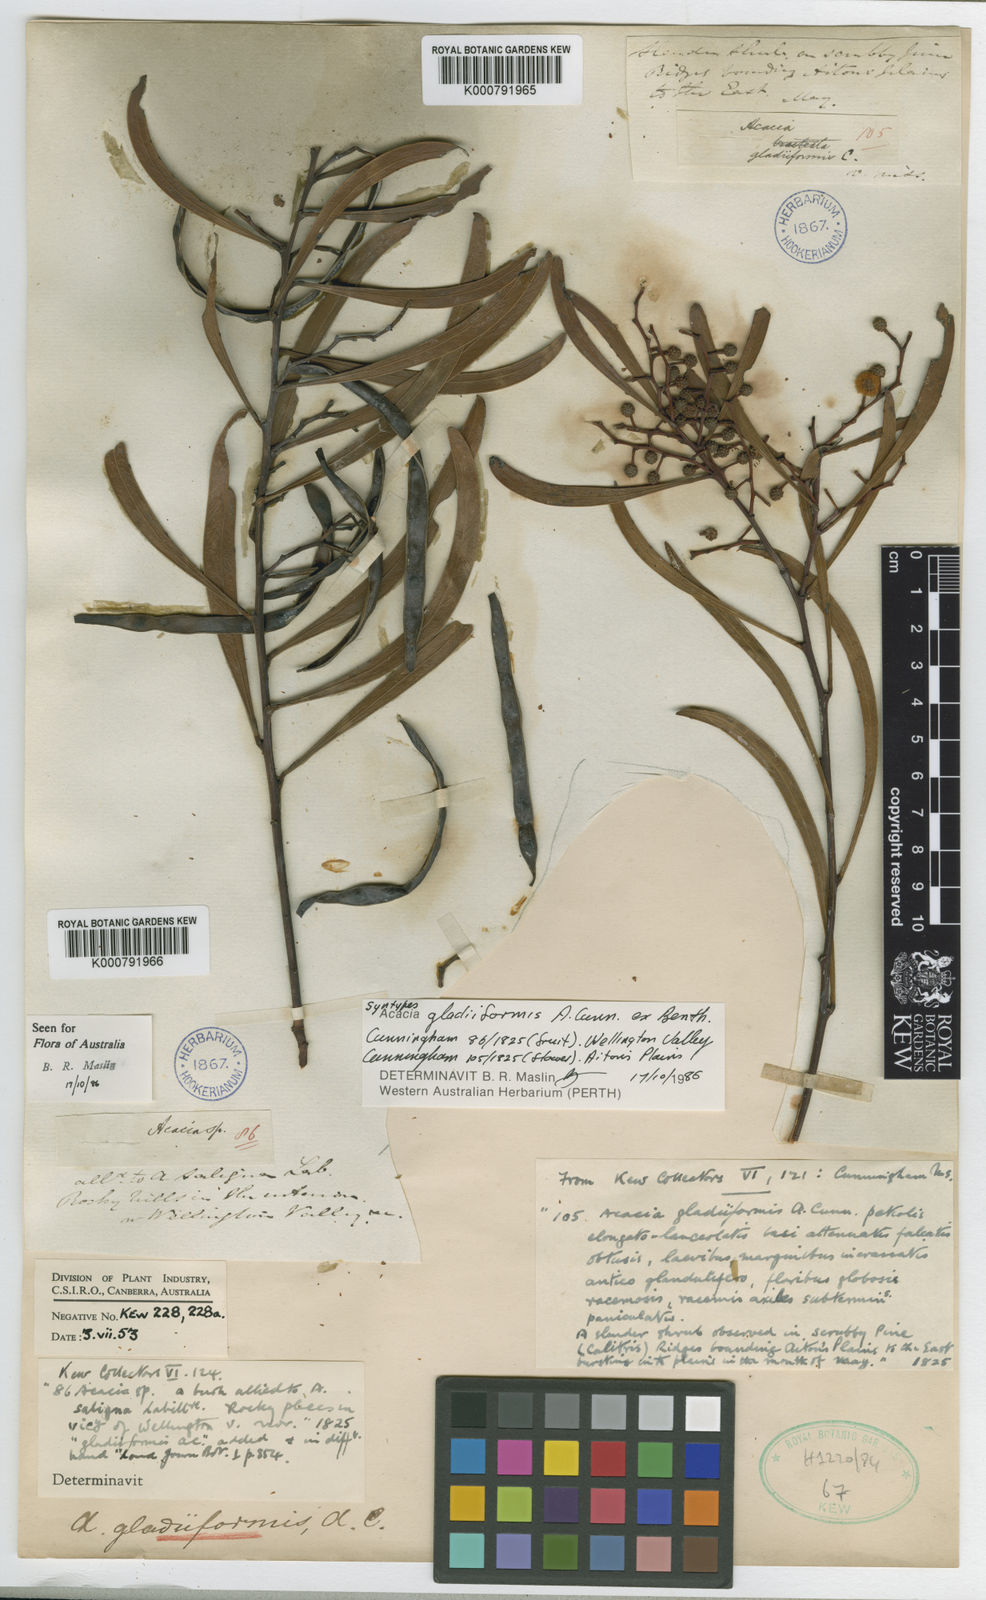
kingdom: Plantae
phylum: Tracheophyta
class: Magnoliopsida
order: Fabales
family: Fabaceae
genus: Acacia
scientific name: Acacia gladiiformis
